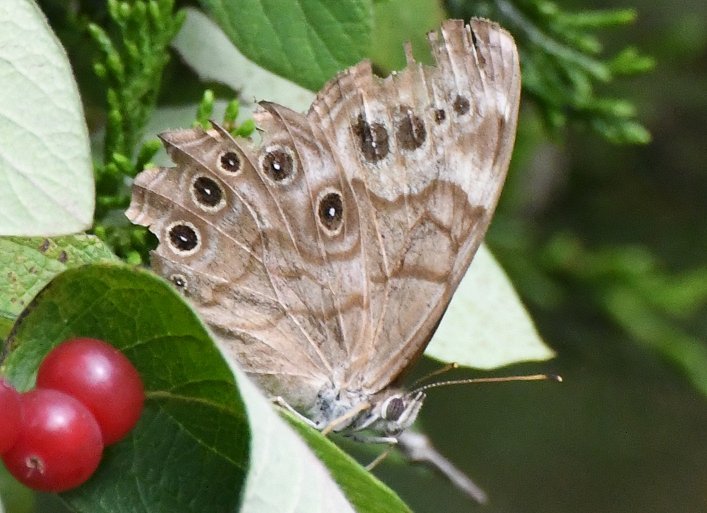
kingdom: Animalia
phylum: Arthropoda
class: Insecta
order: Lepidoptera
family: Nymphalidae
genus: Lethe
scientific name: Lethe anthedon
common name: Northern Pearly-Eye
